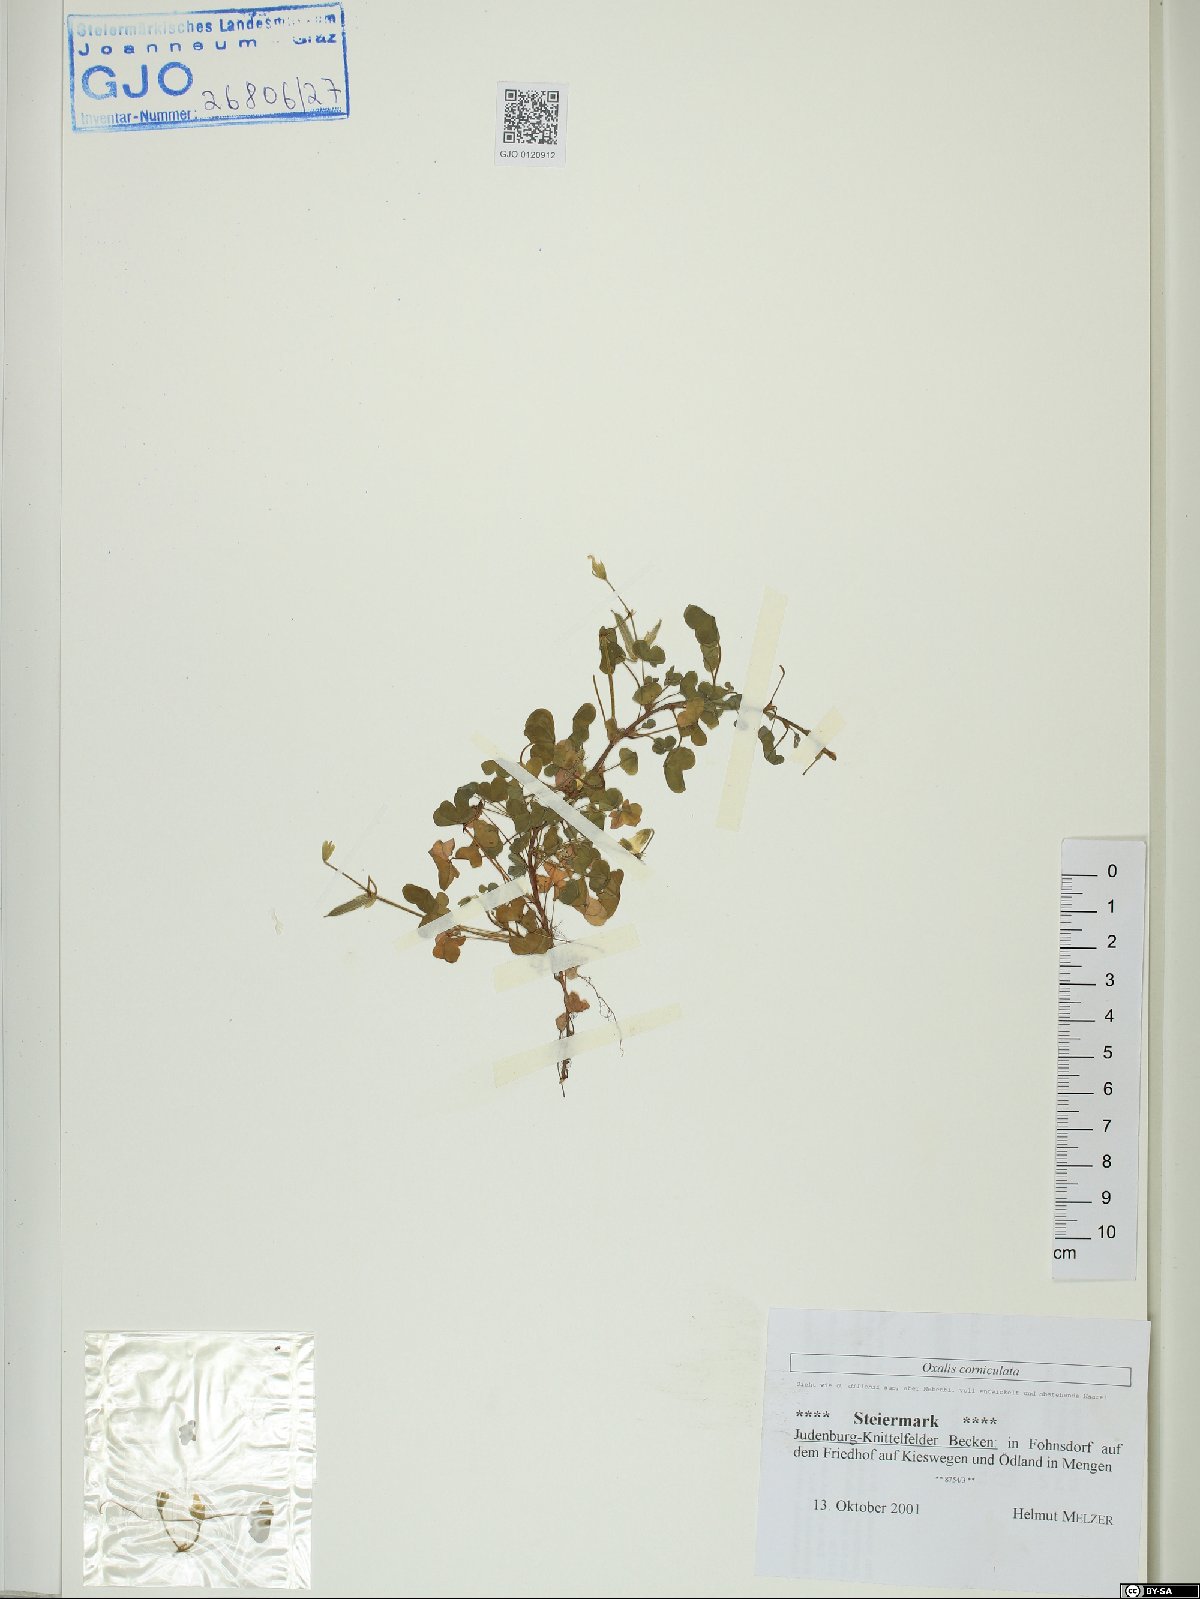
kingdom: Plantae
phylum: Tracheophyta
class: Magnoliopsida
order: Oxalidales
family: Oxalidaceae
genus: Oxalis
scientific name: Oxalis corniculata
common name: Procumbent yellow-sorrel
